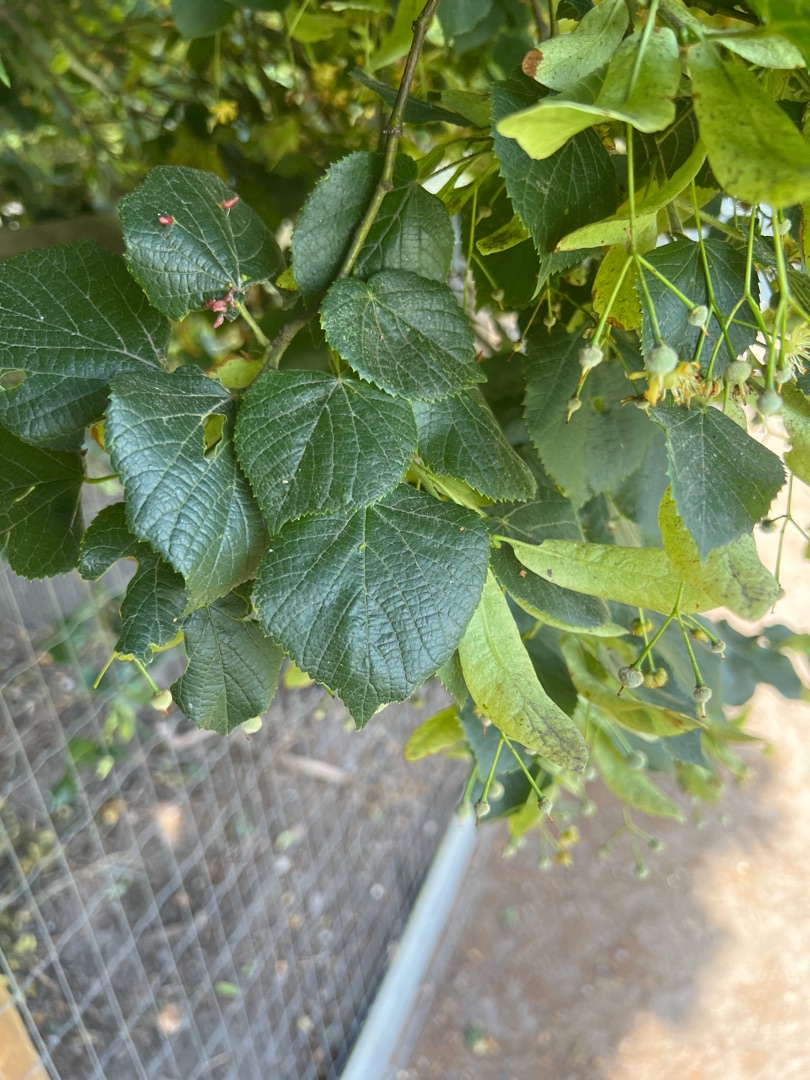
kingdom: Plantae
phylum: Tracheophyta
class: Magnoliopsida
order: Malvales
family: Malvaceae
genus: Tilia
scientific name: Tilia cordata
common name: Småbladet lind
